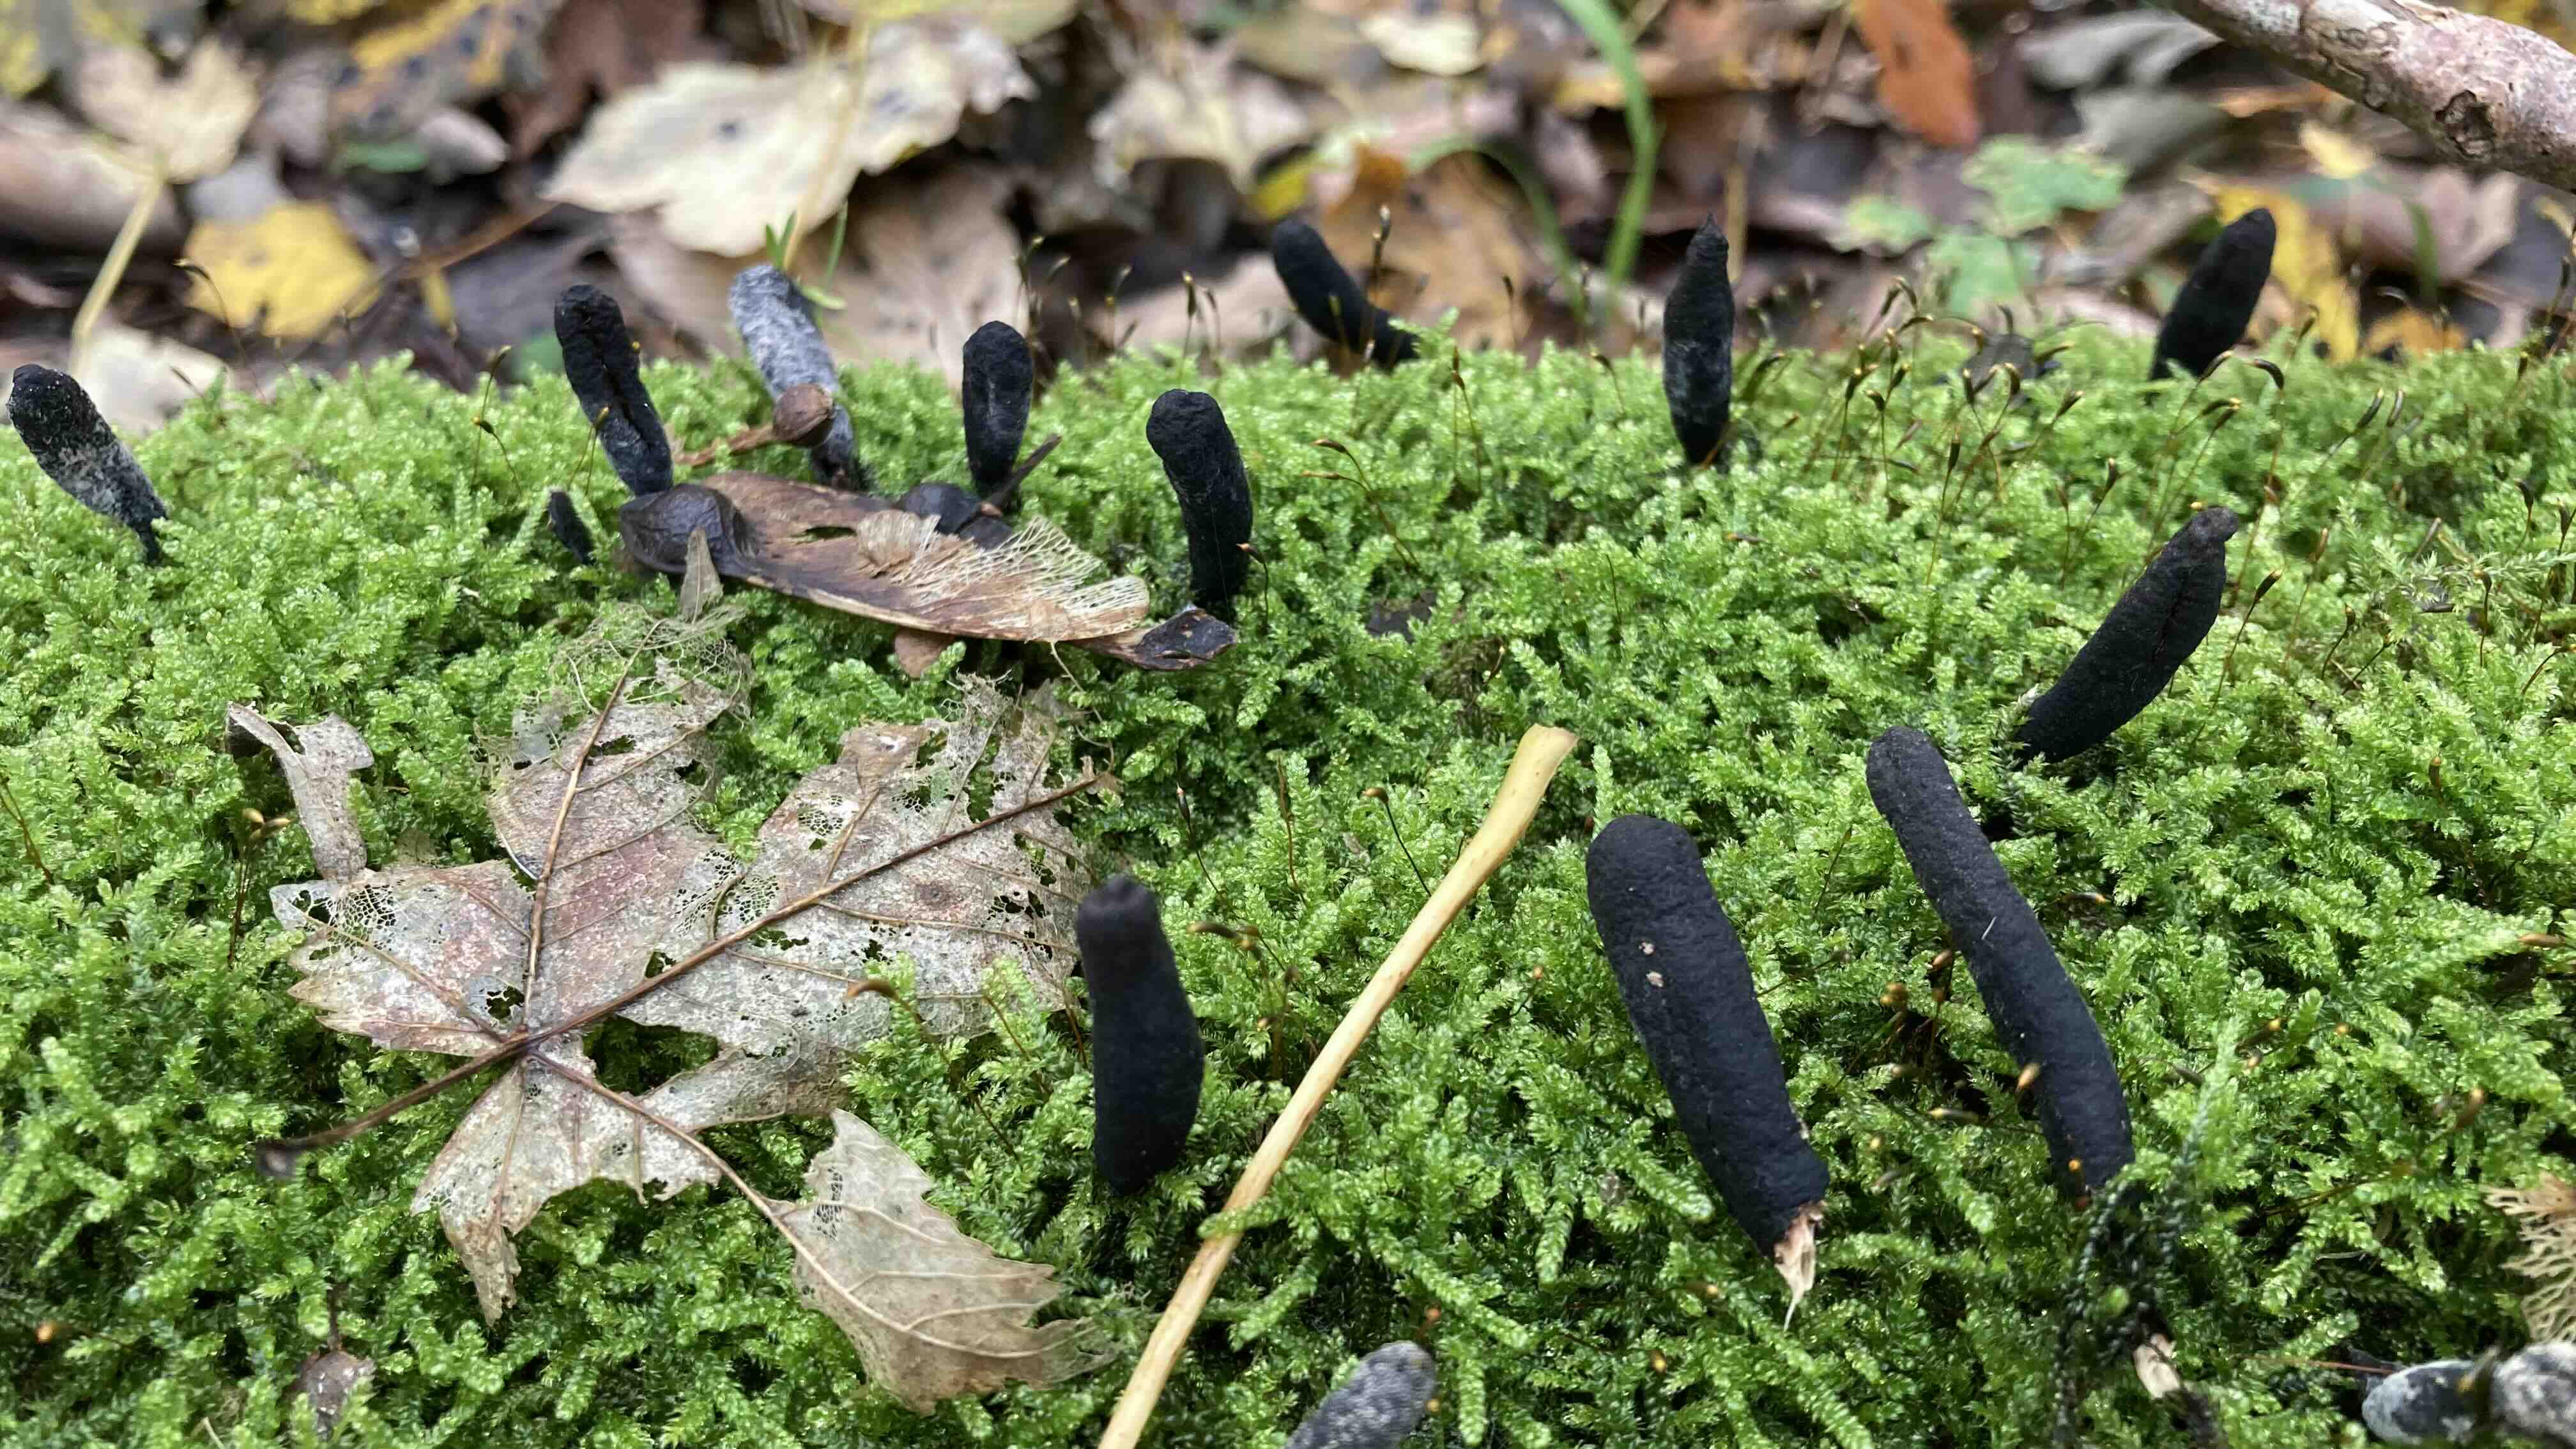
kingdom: Fungi
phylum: Ascomycota
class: Sordariomycetes
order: Xylariales
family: Xylariaceae
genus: Xylaria
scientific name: Xylaria longipes
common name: slank stødsvamp
